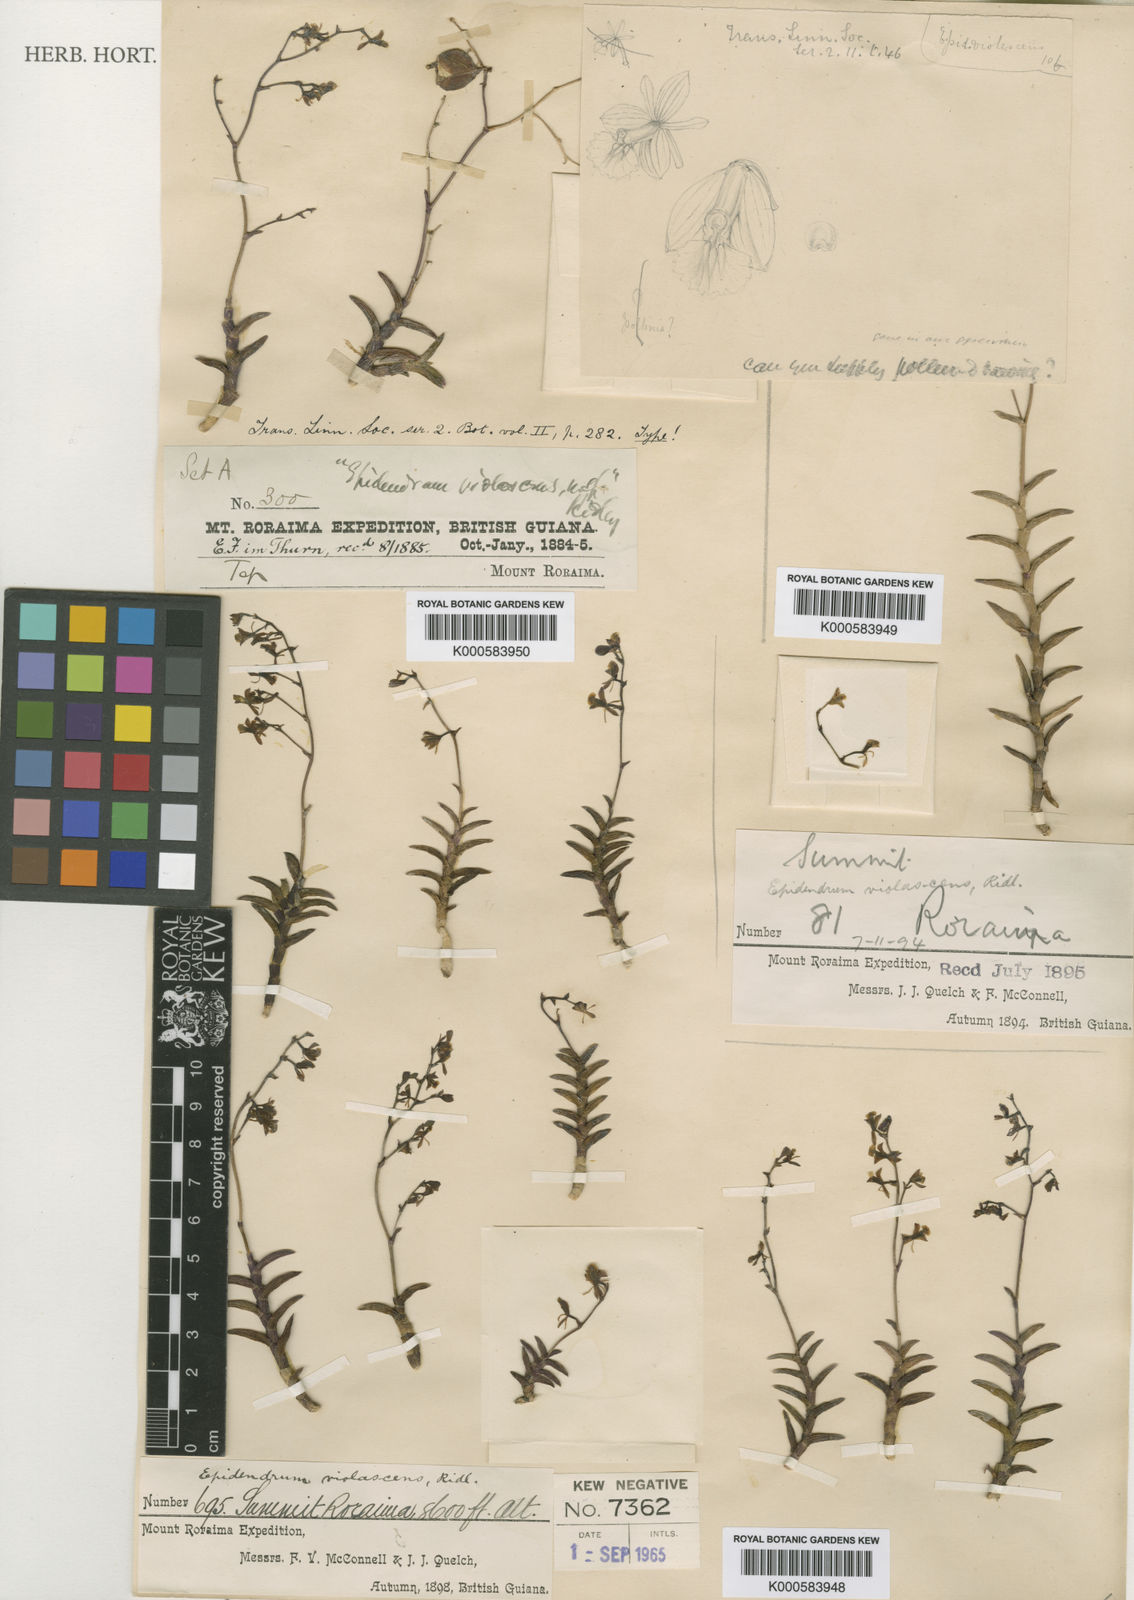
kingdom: Plantae
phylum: Tracheophyta
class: Liliopsida
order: Asparagales
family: Orchidaceae
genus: Epidendrum
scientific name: Epidendrum violascens
